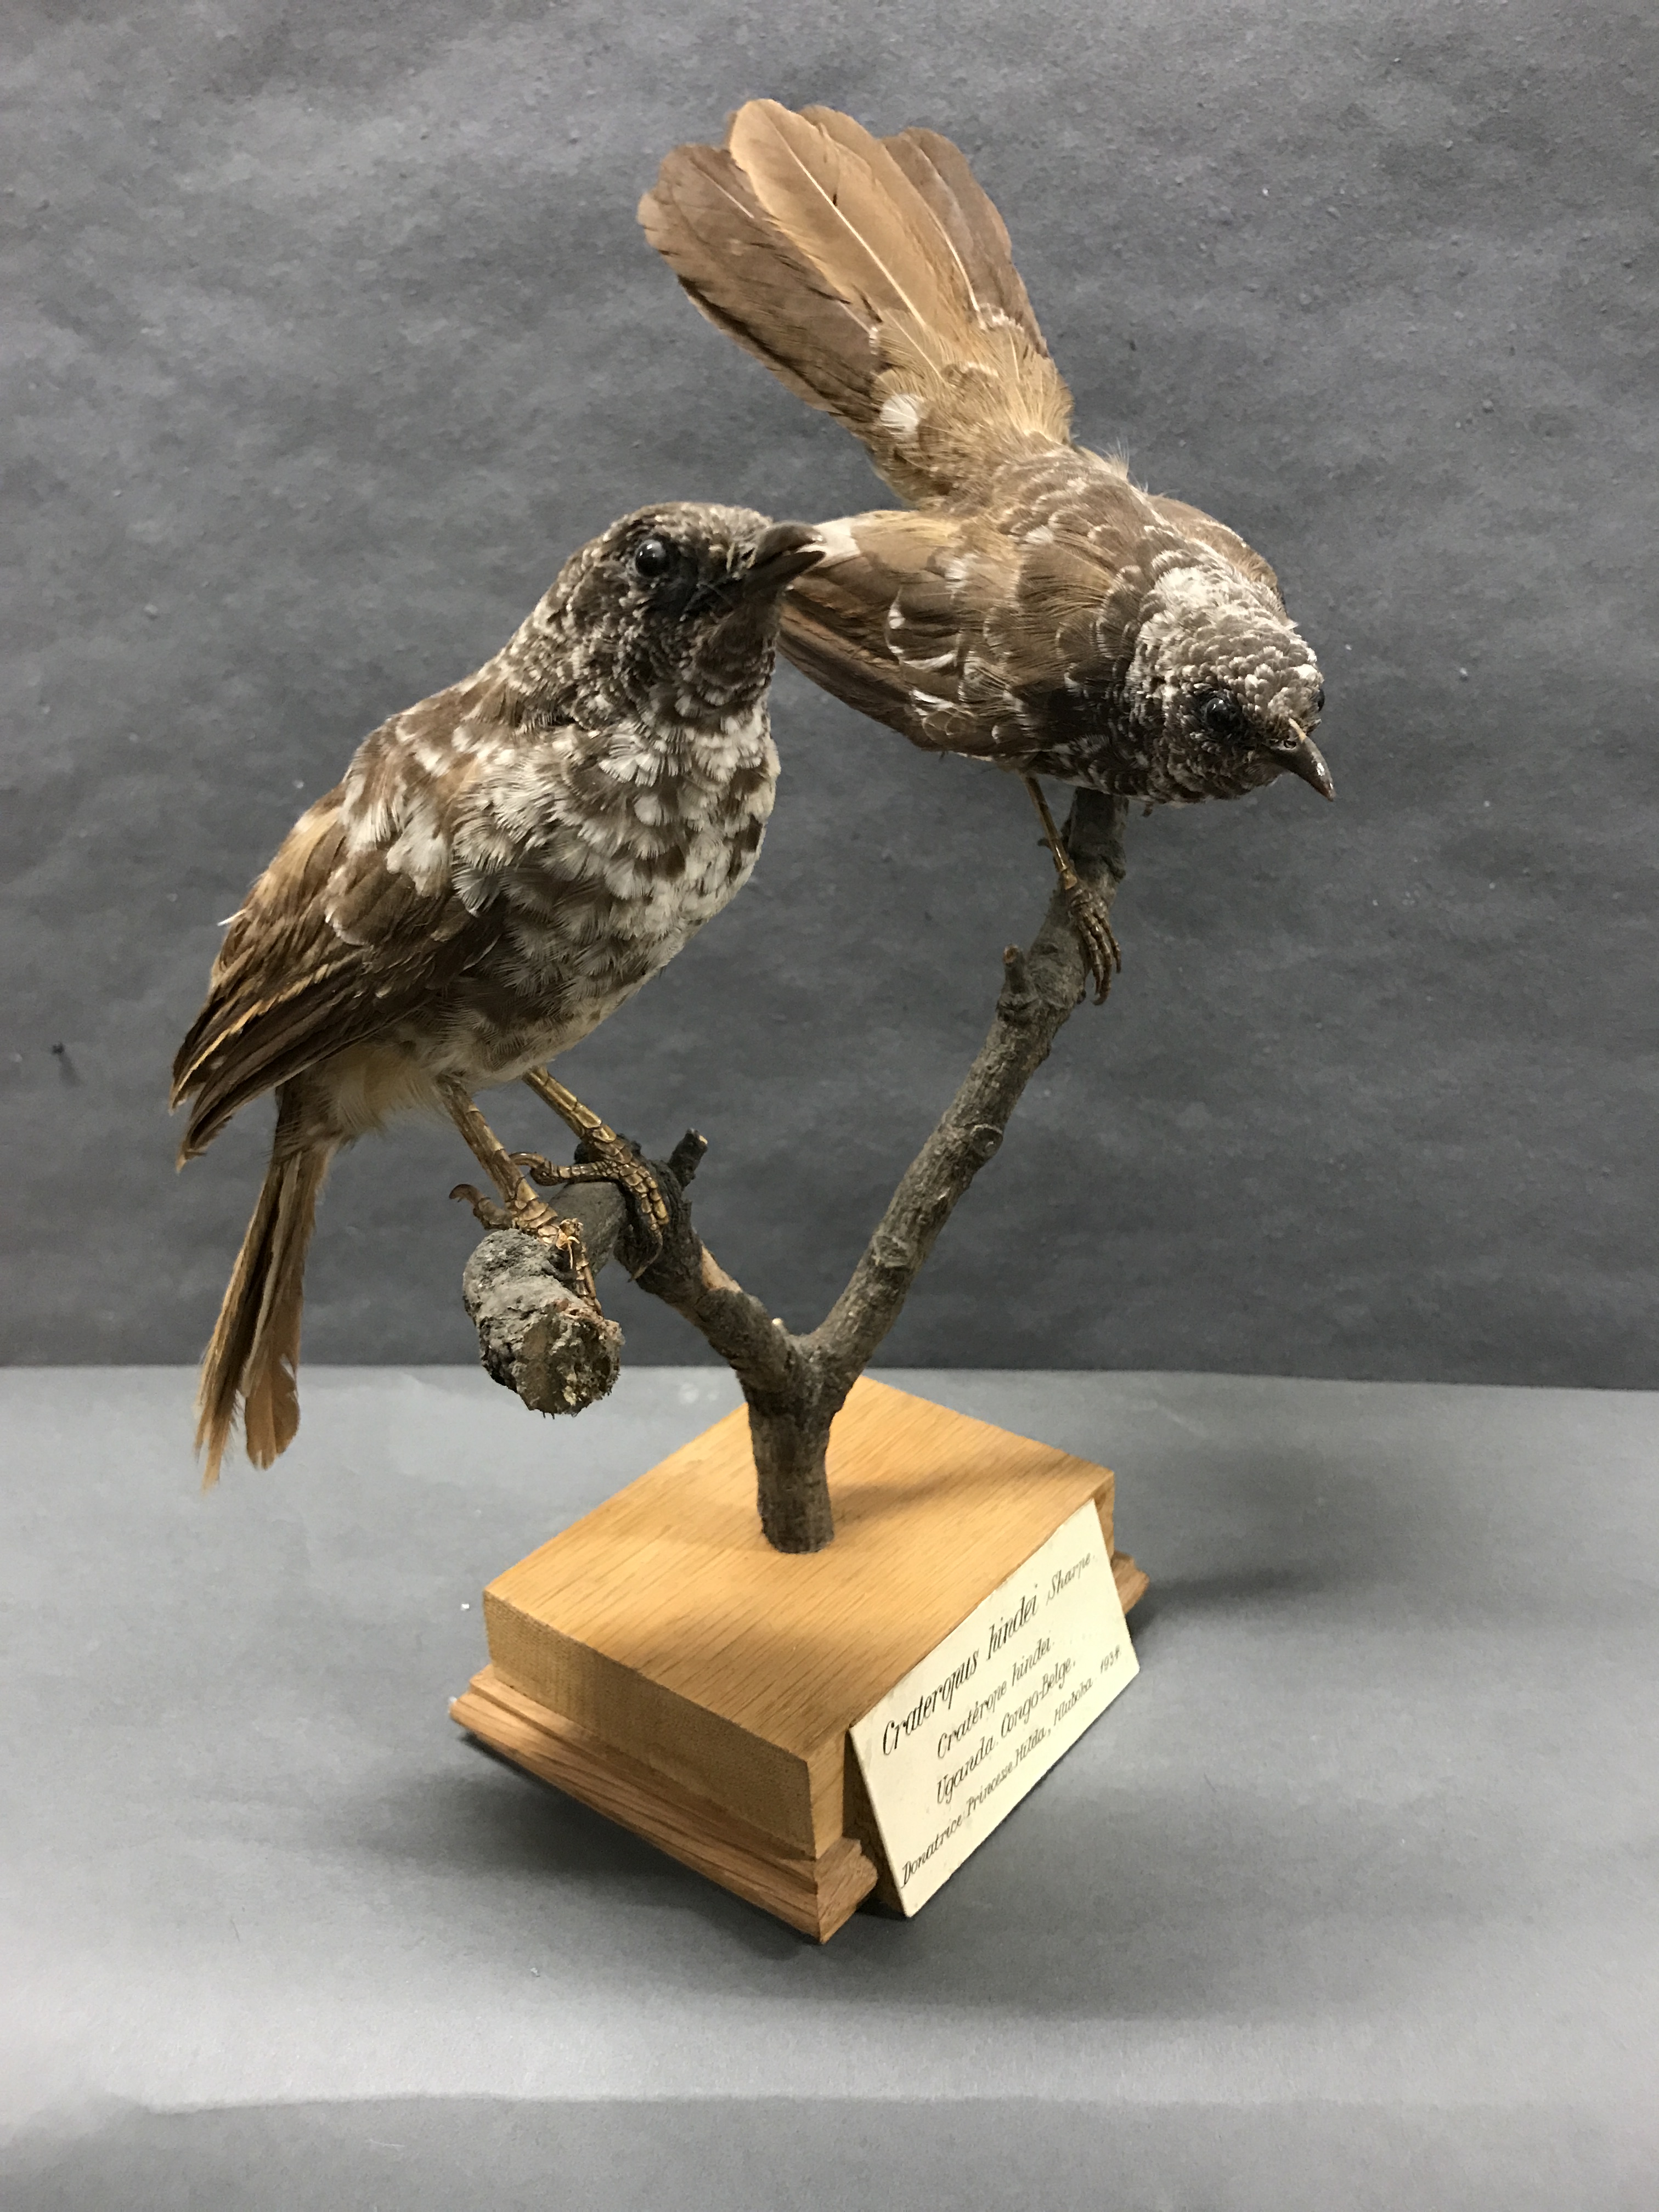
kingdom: Animalia
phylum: Chordata
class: Aves
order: Passeriformes
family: Leiothrichidae
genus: Turdoides
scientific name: Turdoides hindei
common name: Hinde's babbler
